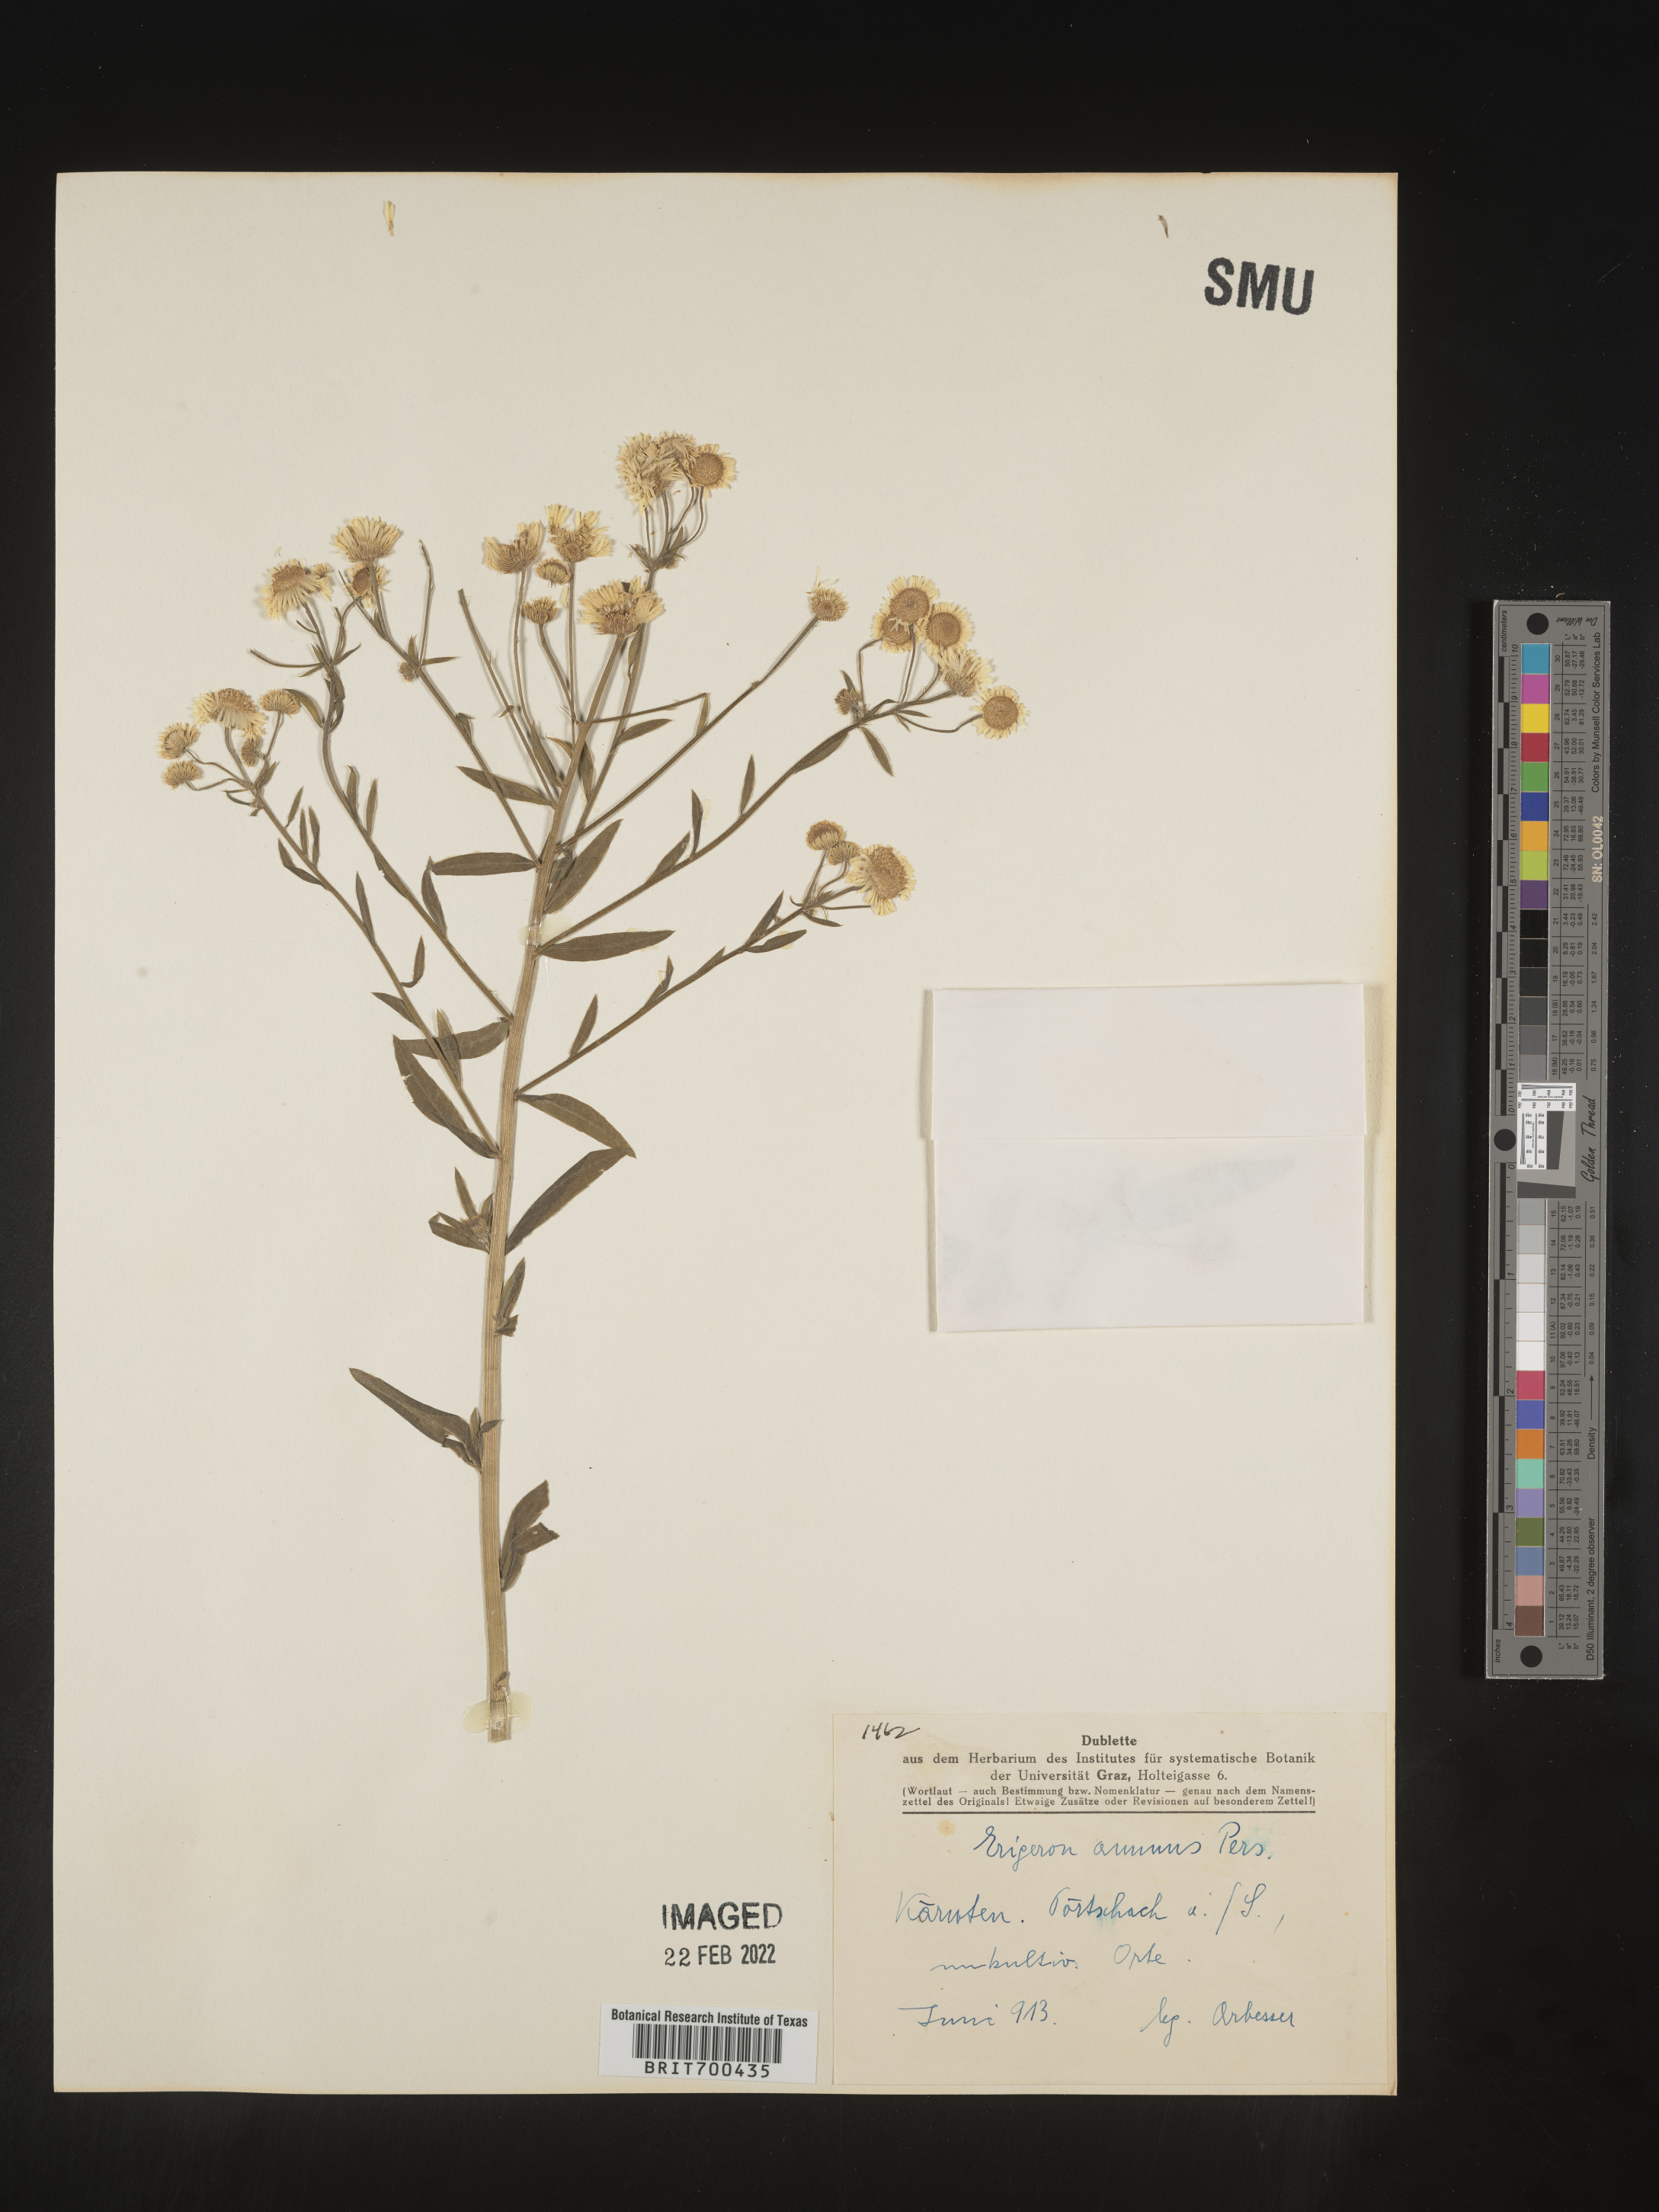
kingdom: Plantae
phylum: Tracheophyta
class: Magnoliopsida
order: Asterales
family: Asteraceae
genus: Erigeron
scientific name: Erigeron
